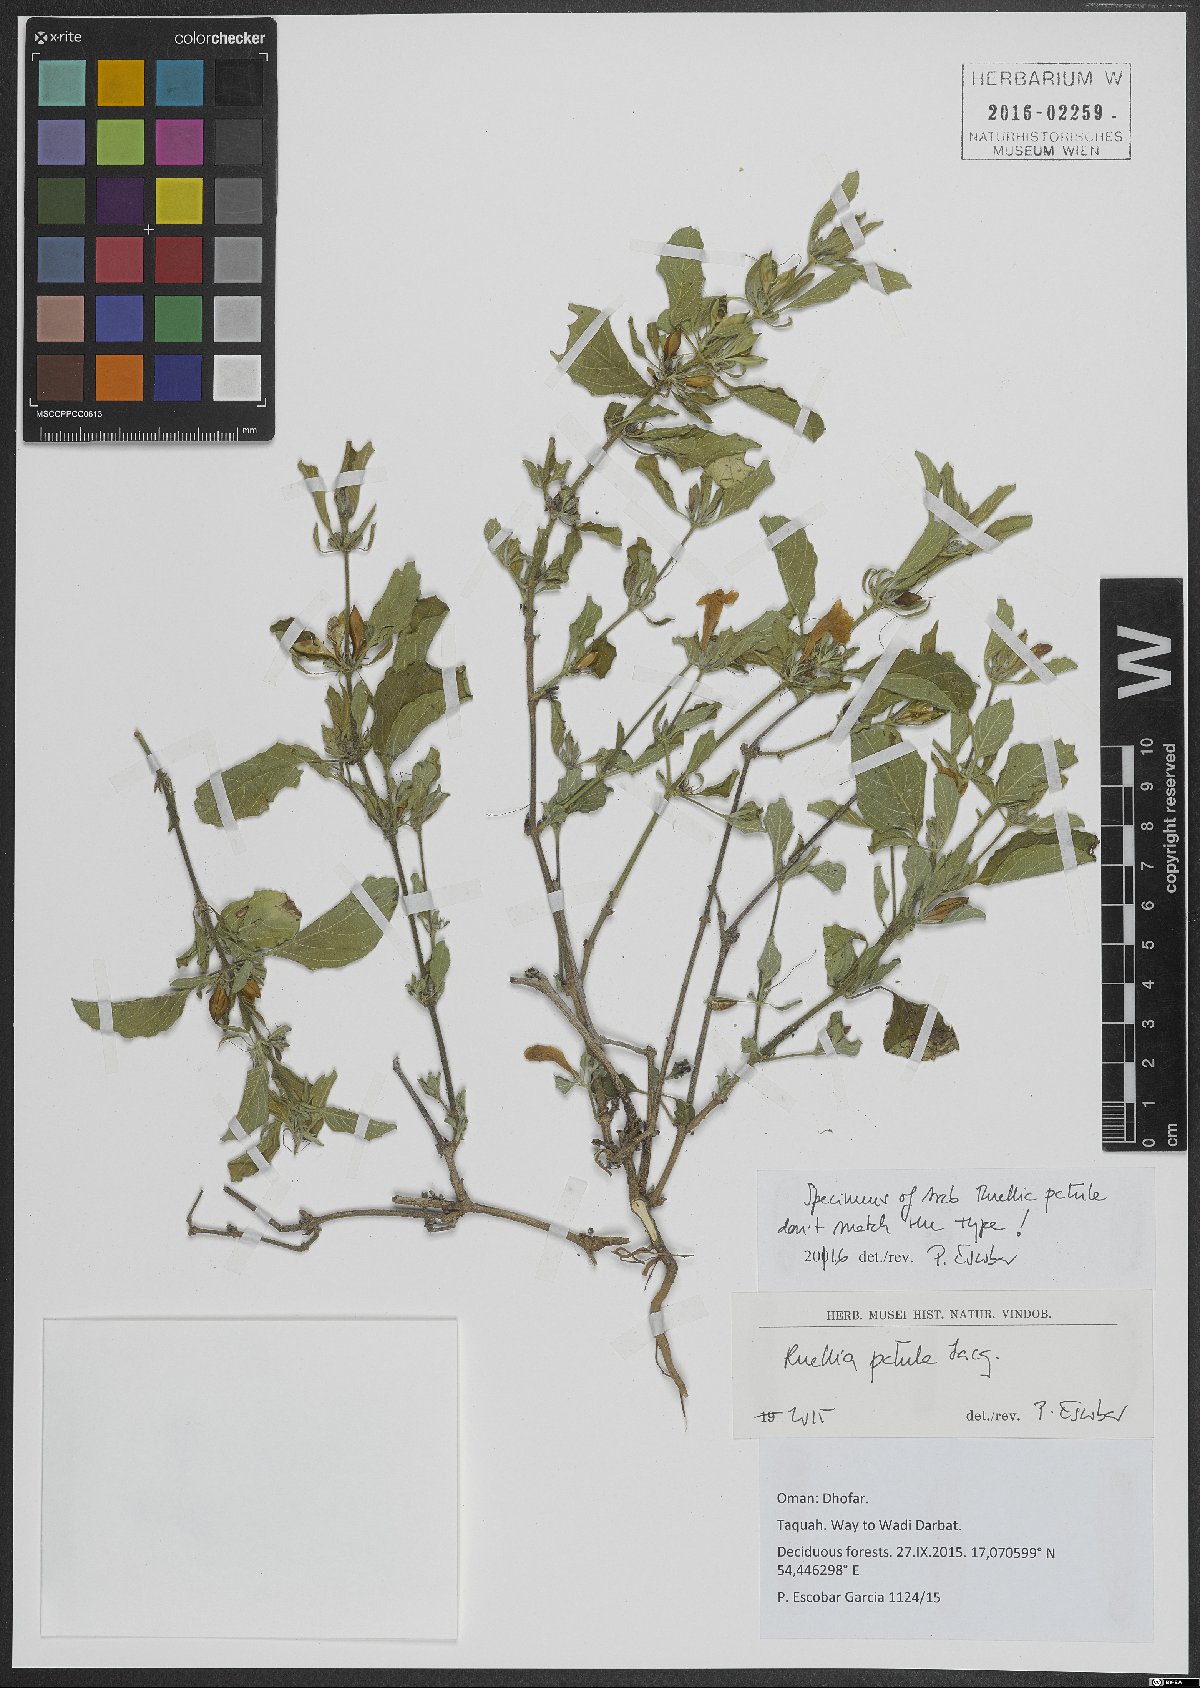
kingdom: Plantae
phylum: Tracheophyta
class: Magnoliopsida
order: Lamiales
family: Acanthaceae
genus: Ruellia
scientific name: Ruellia patula
